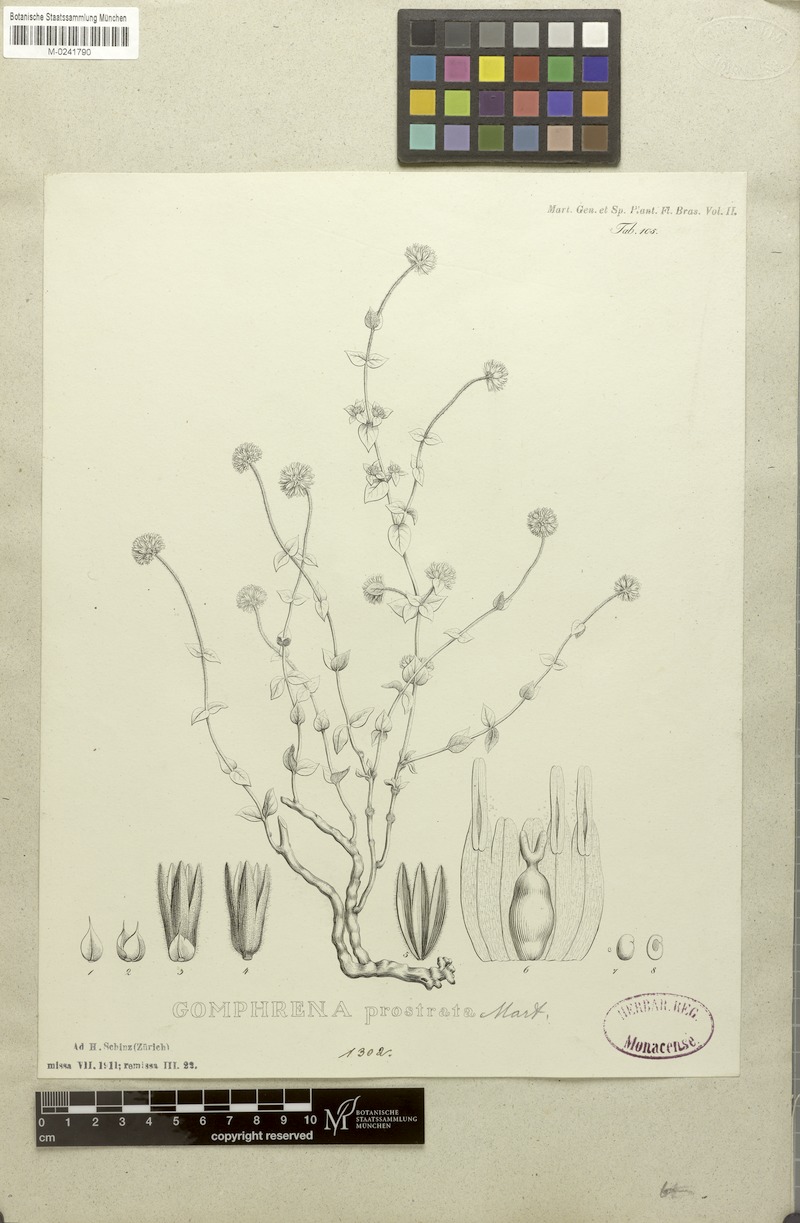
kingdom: Plantae
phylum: Tracheophyta
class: Magnoliopsida
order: Caryophyllales
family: Amaranthaceae
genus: Gomphrena
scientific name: Gomphrena prostrata
